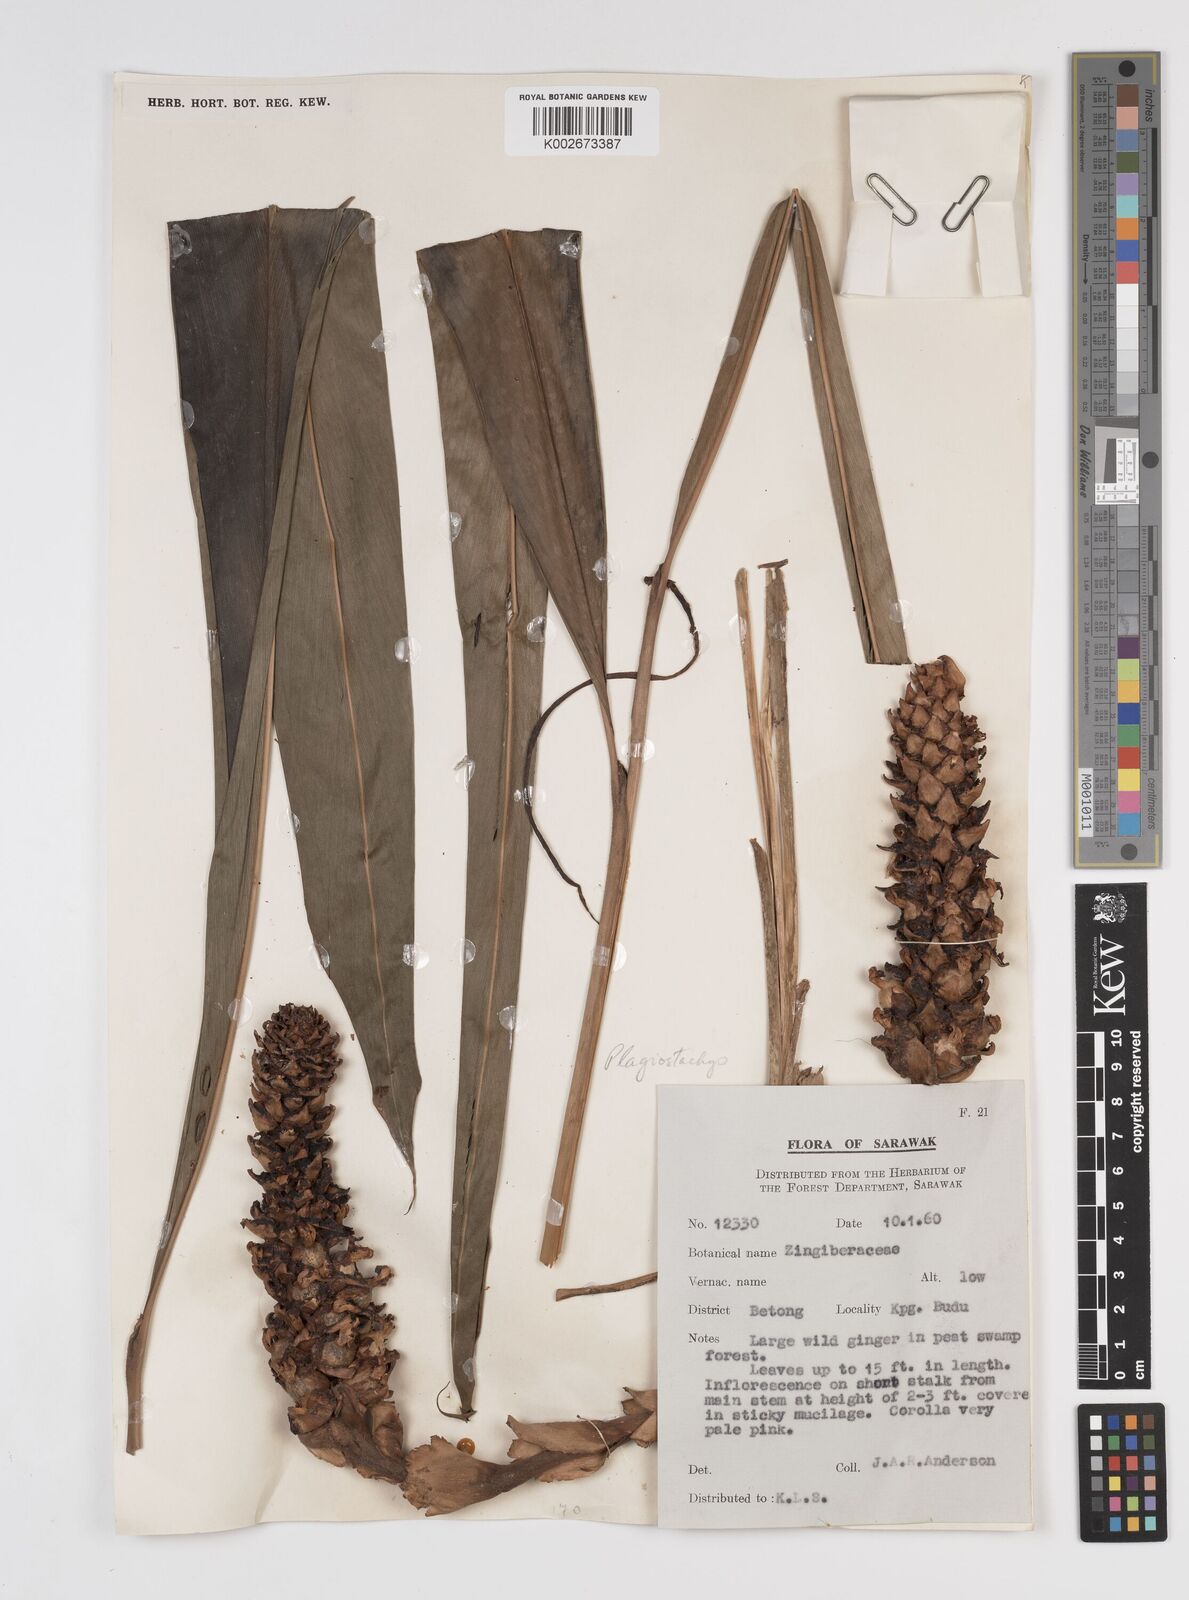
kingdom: Plantae
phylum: Tracheophyta
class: Liliopsida
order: Zingiberales
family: Zingiberaceae
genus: Conamomum
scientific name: Conamomum cylindrostachys
